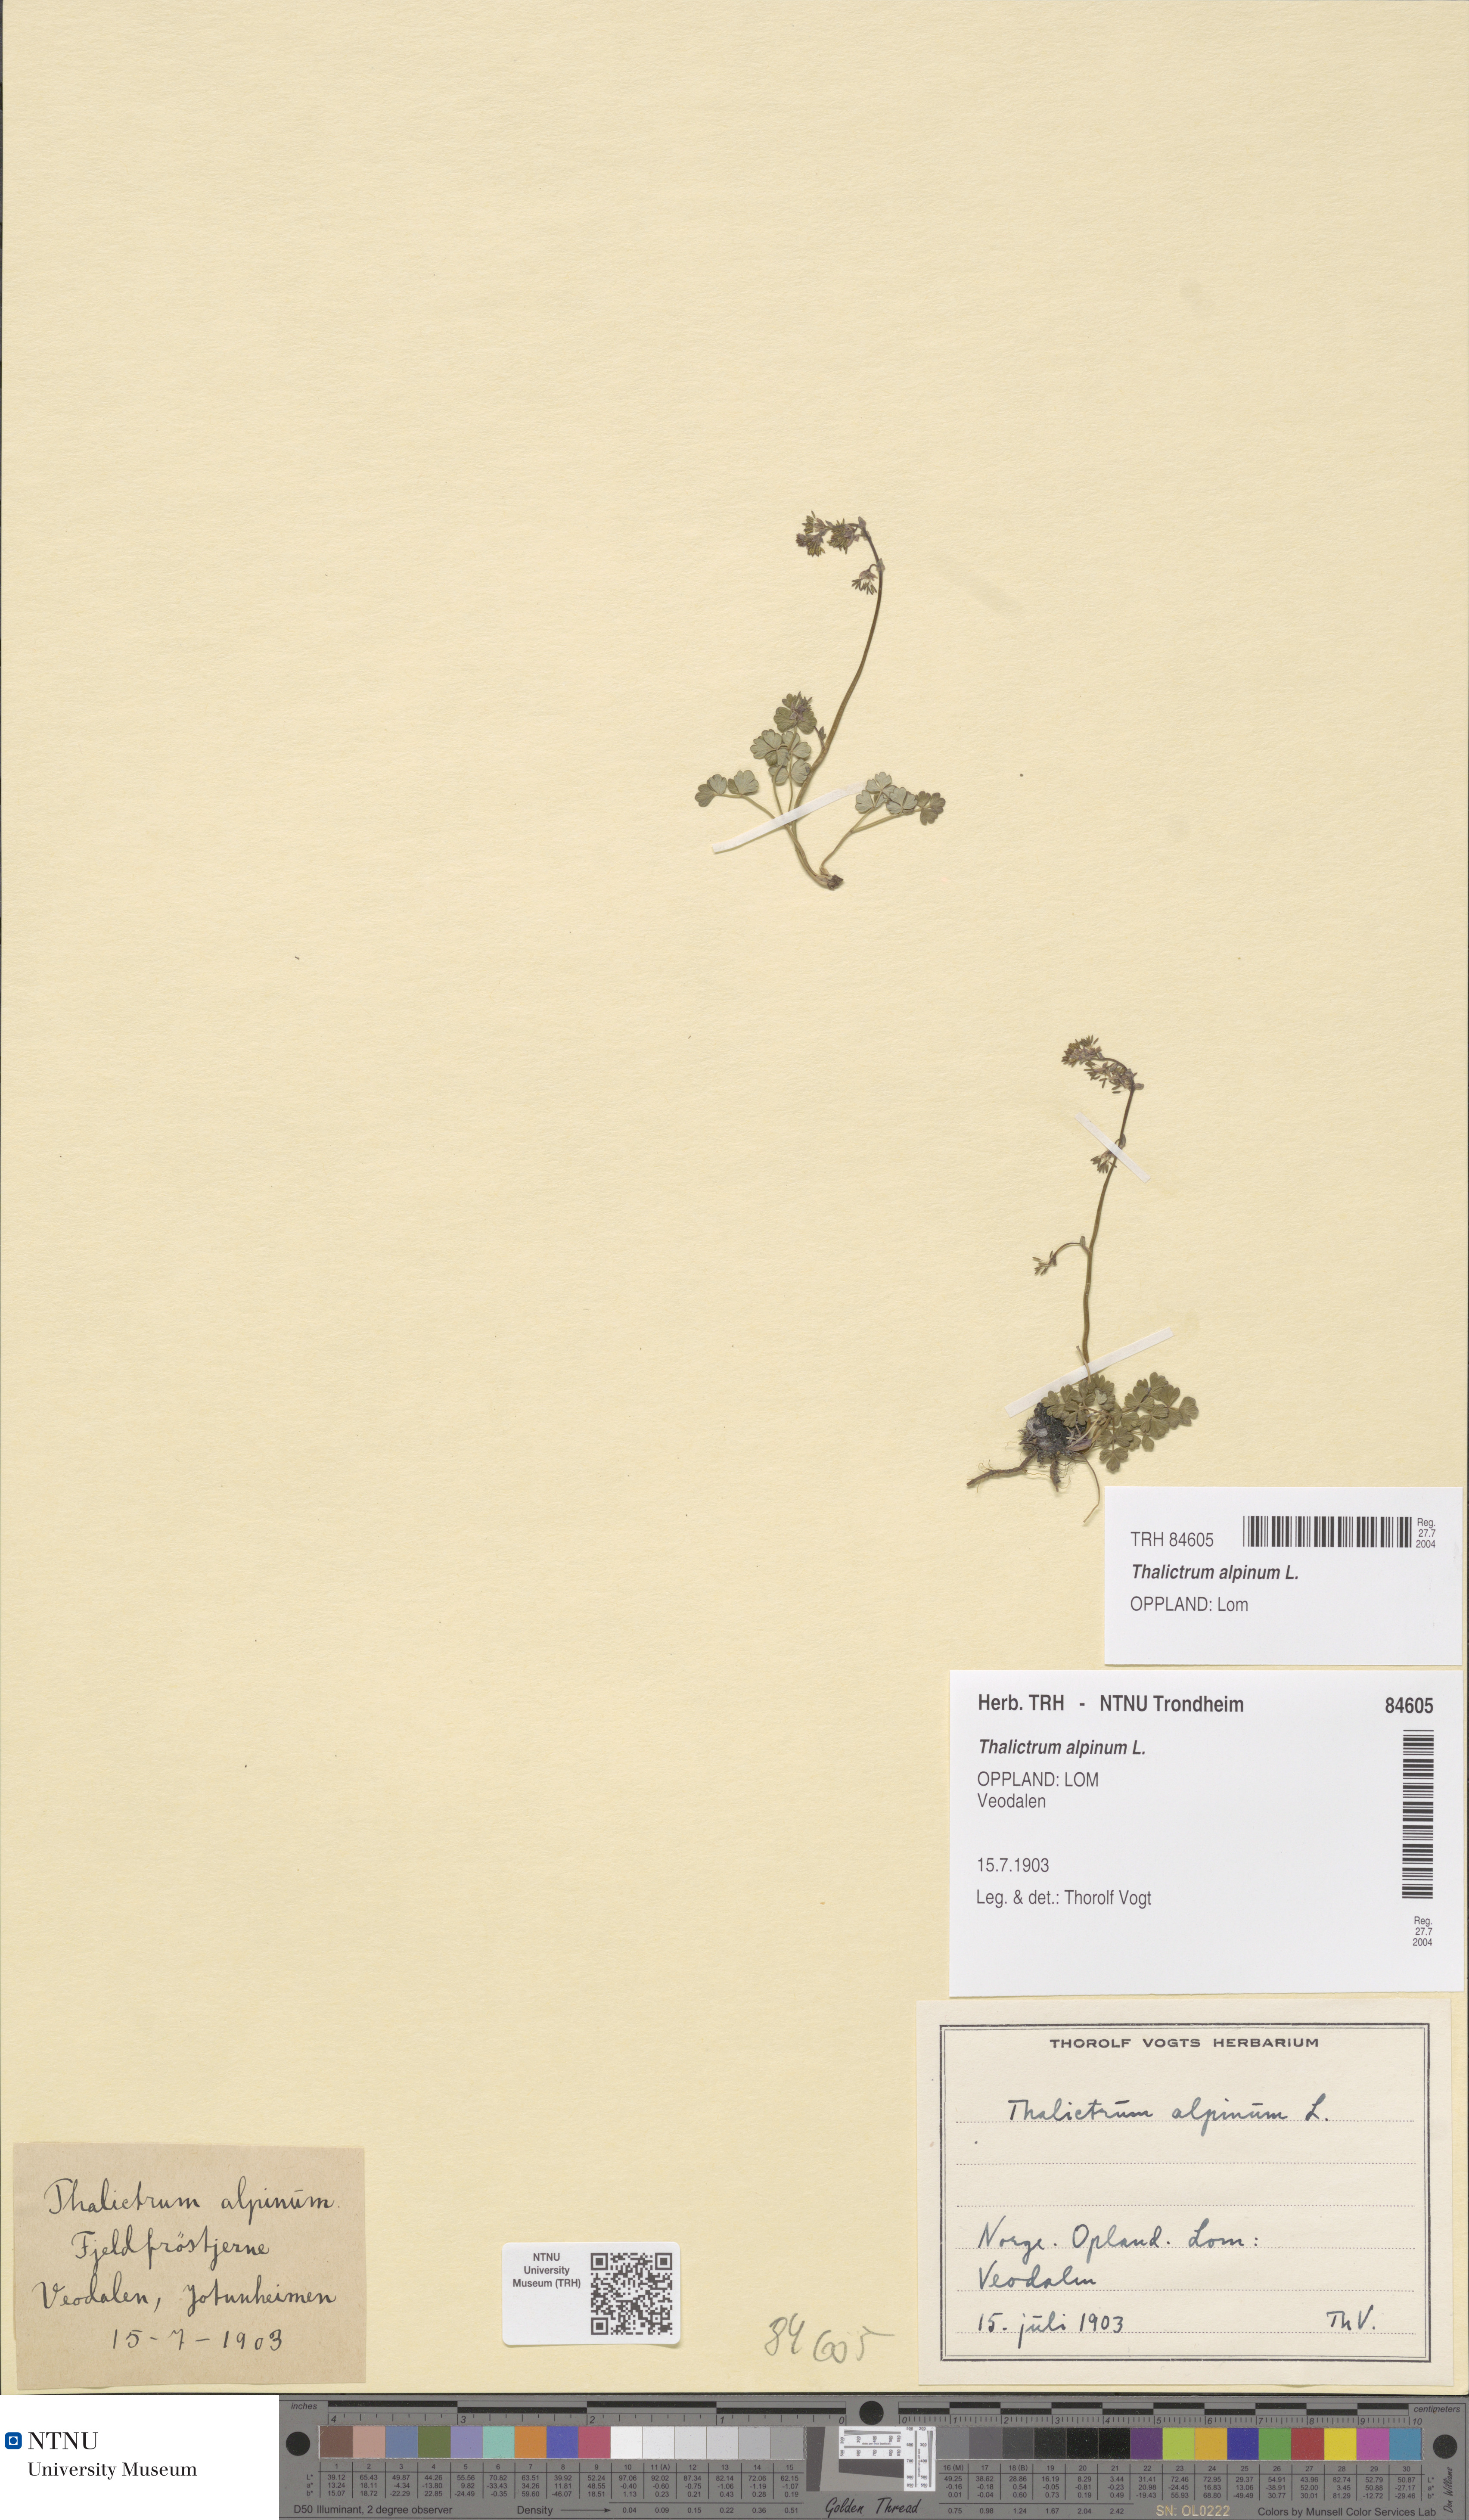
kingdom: Plantae
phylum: Tracheophyta
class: Magnoliopsida
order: Ranunculales
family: Ranunculaceae
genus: Thalictrum
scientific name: Thalictrum alpinum
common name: Alpine meadow-rue
